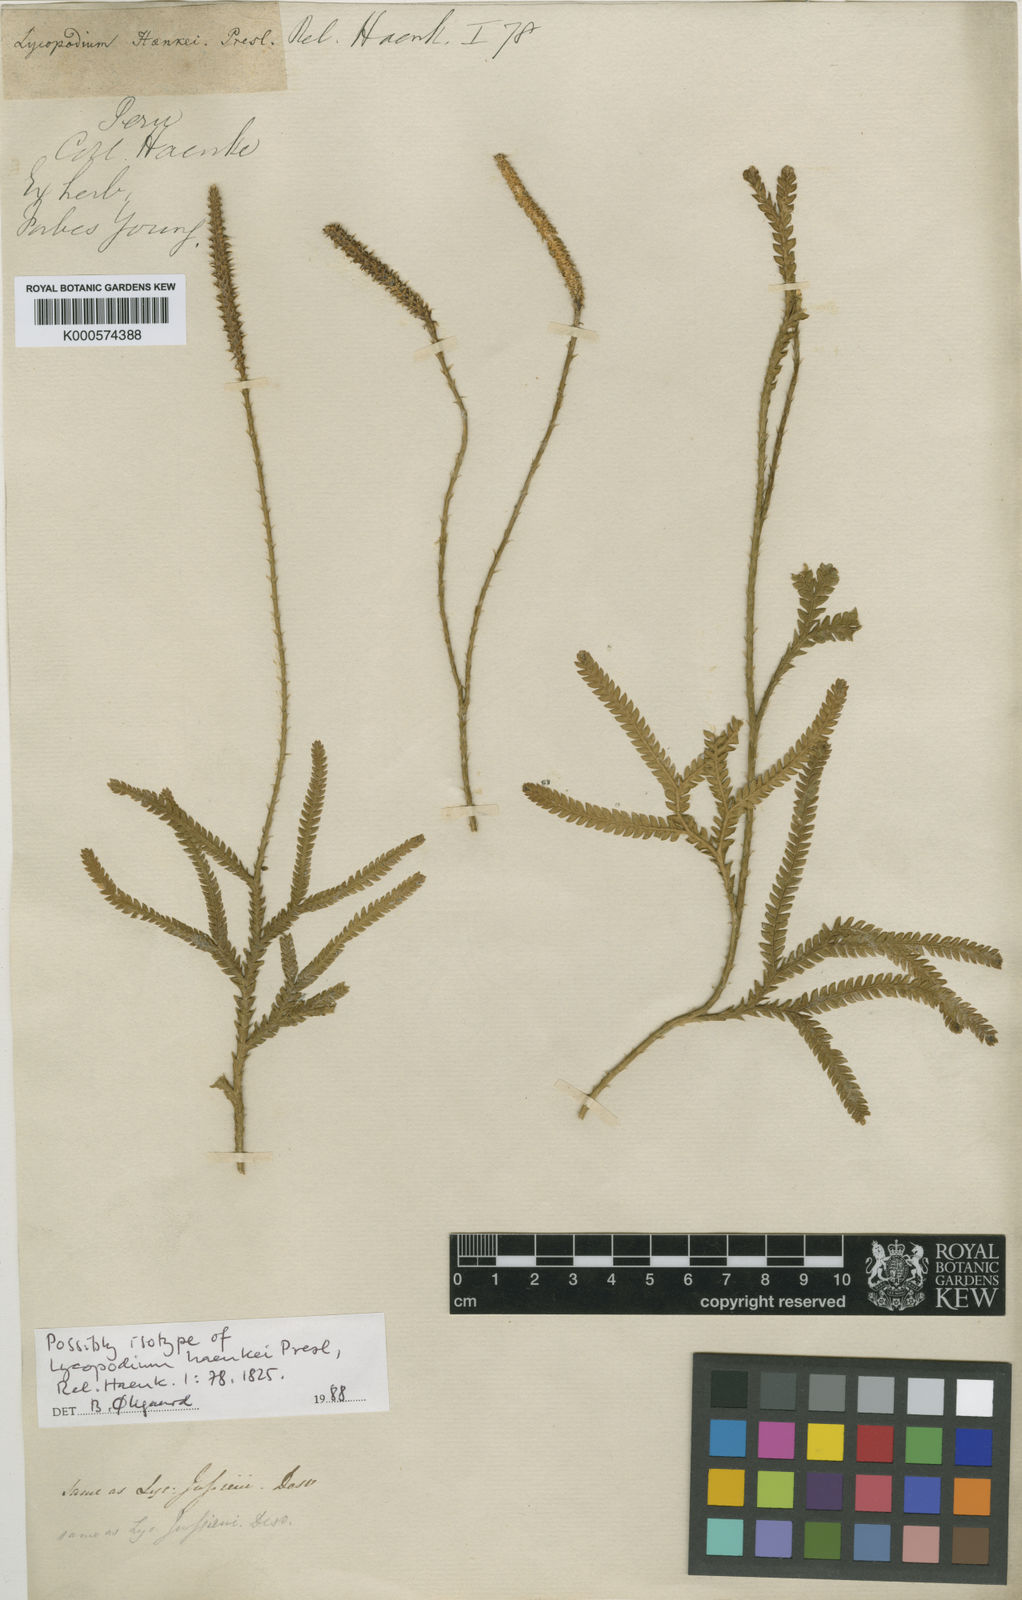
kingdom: Plantae
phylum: Tracheophyta
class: Lycopodiopsida
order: Lycopodiales
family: Lycopodiaceae
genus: Lycopodium
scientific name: Lycopodium
